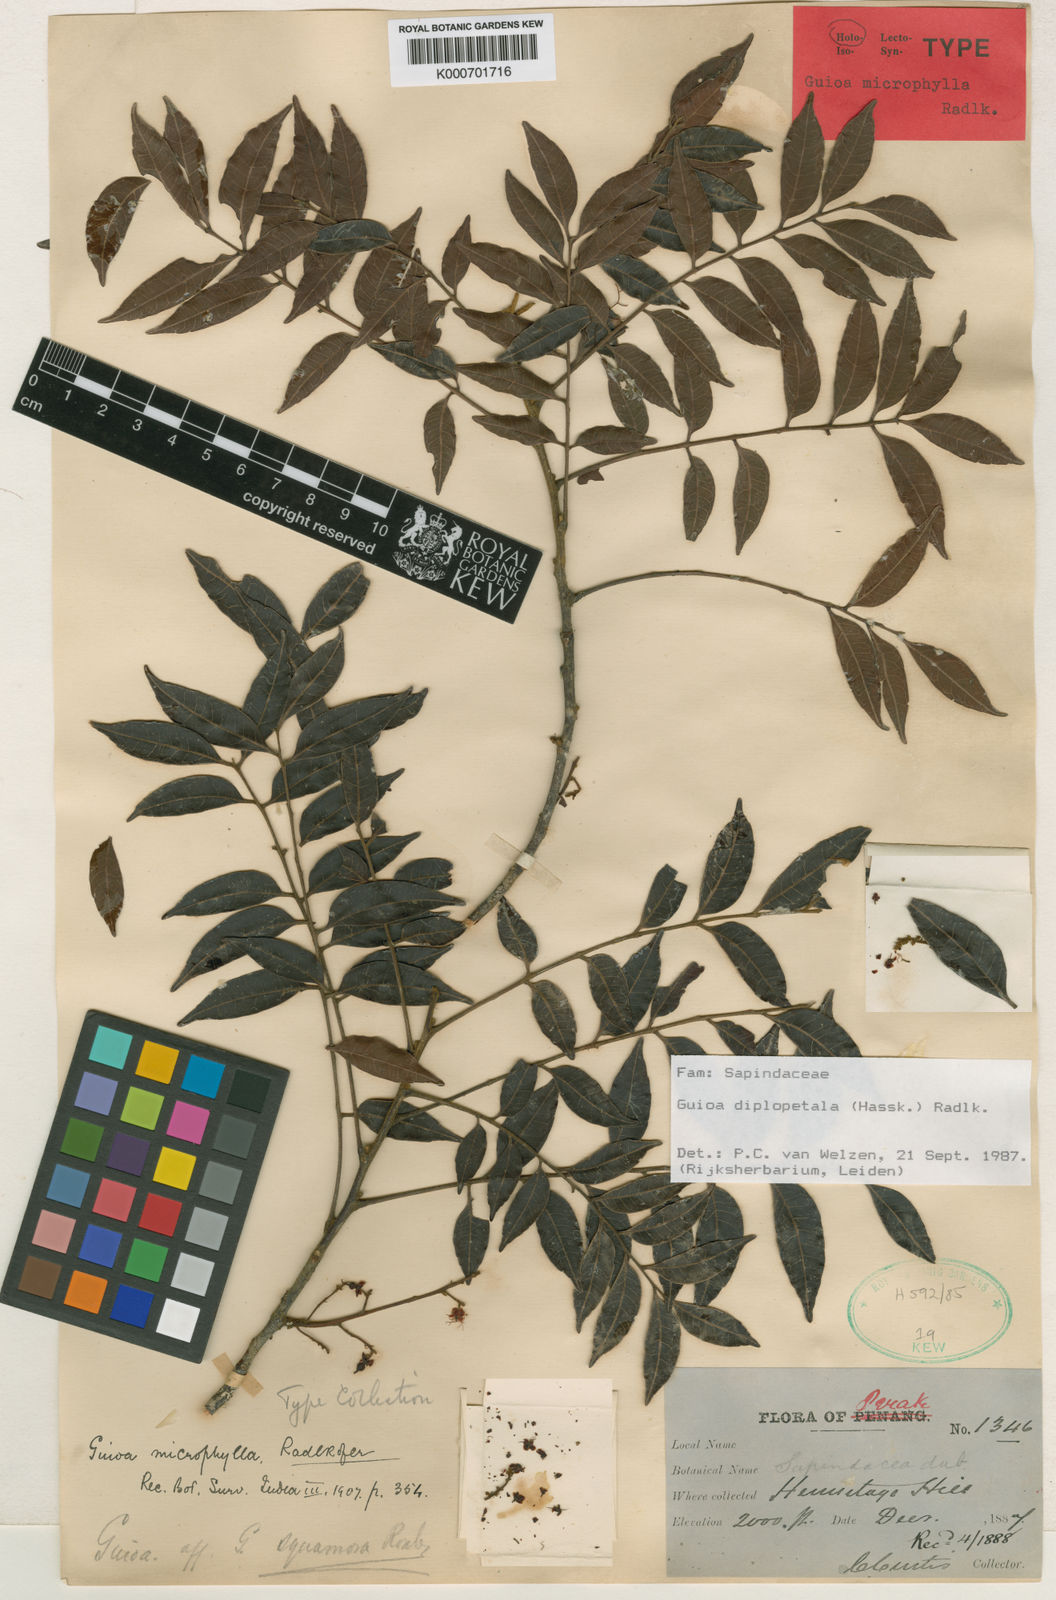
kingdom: Plantae
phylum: Tracheophyta
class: Magnoliopsida
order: Sapindales
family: Sapindaceae
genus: Guioa
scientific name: Guioa diplopetala
